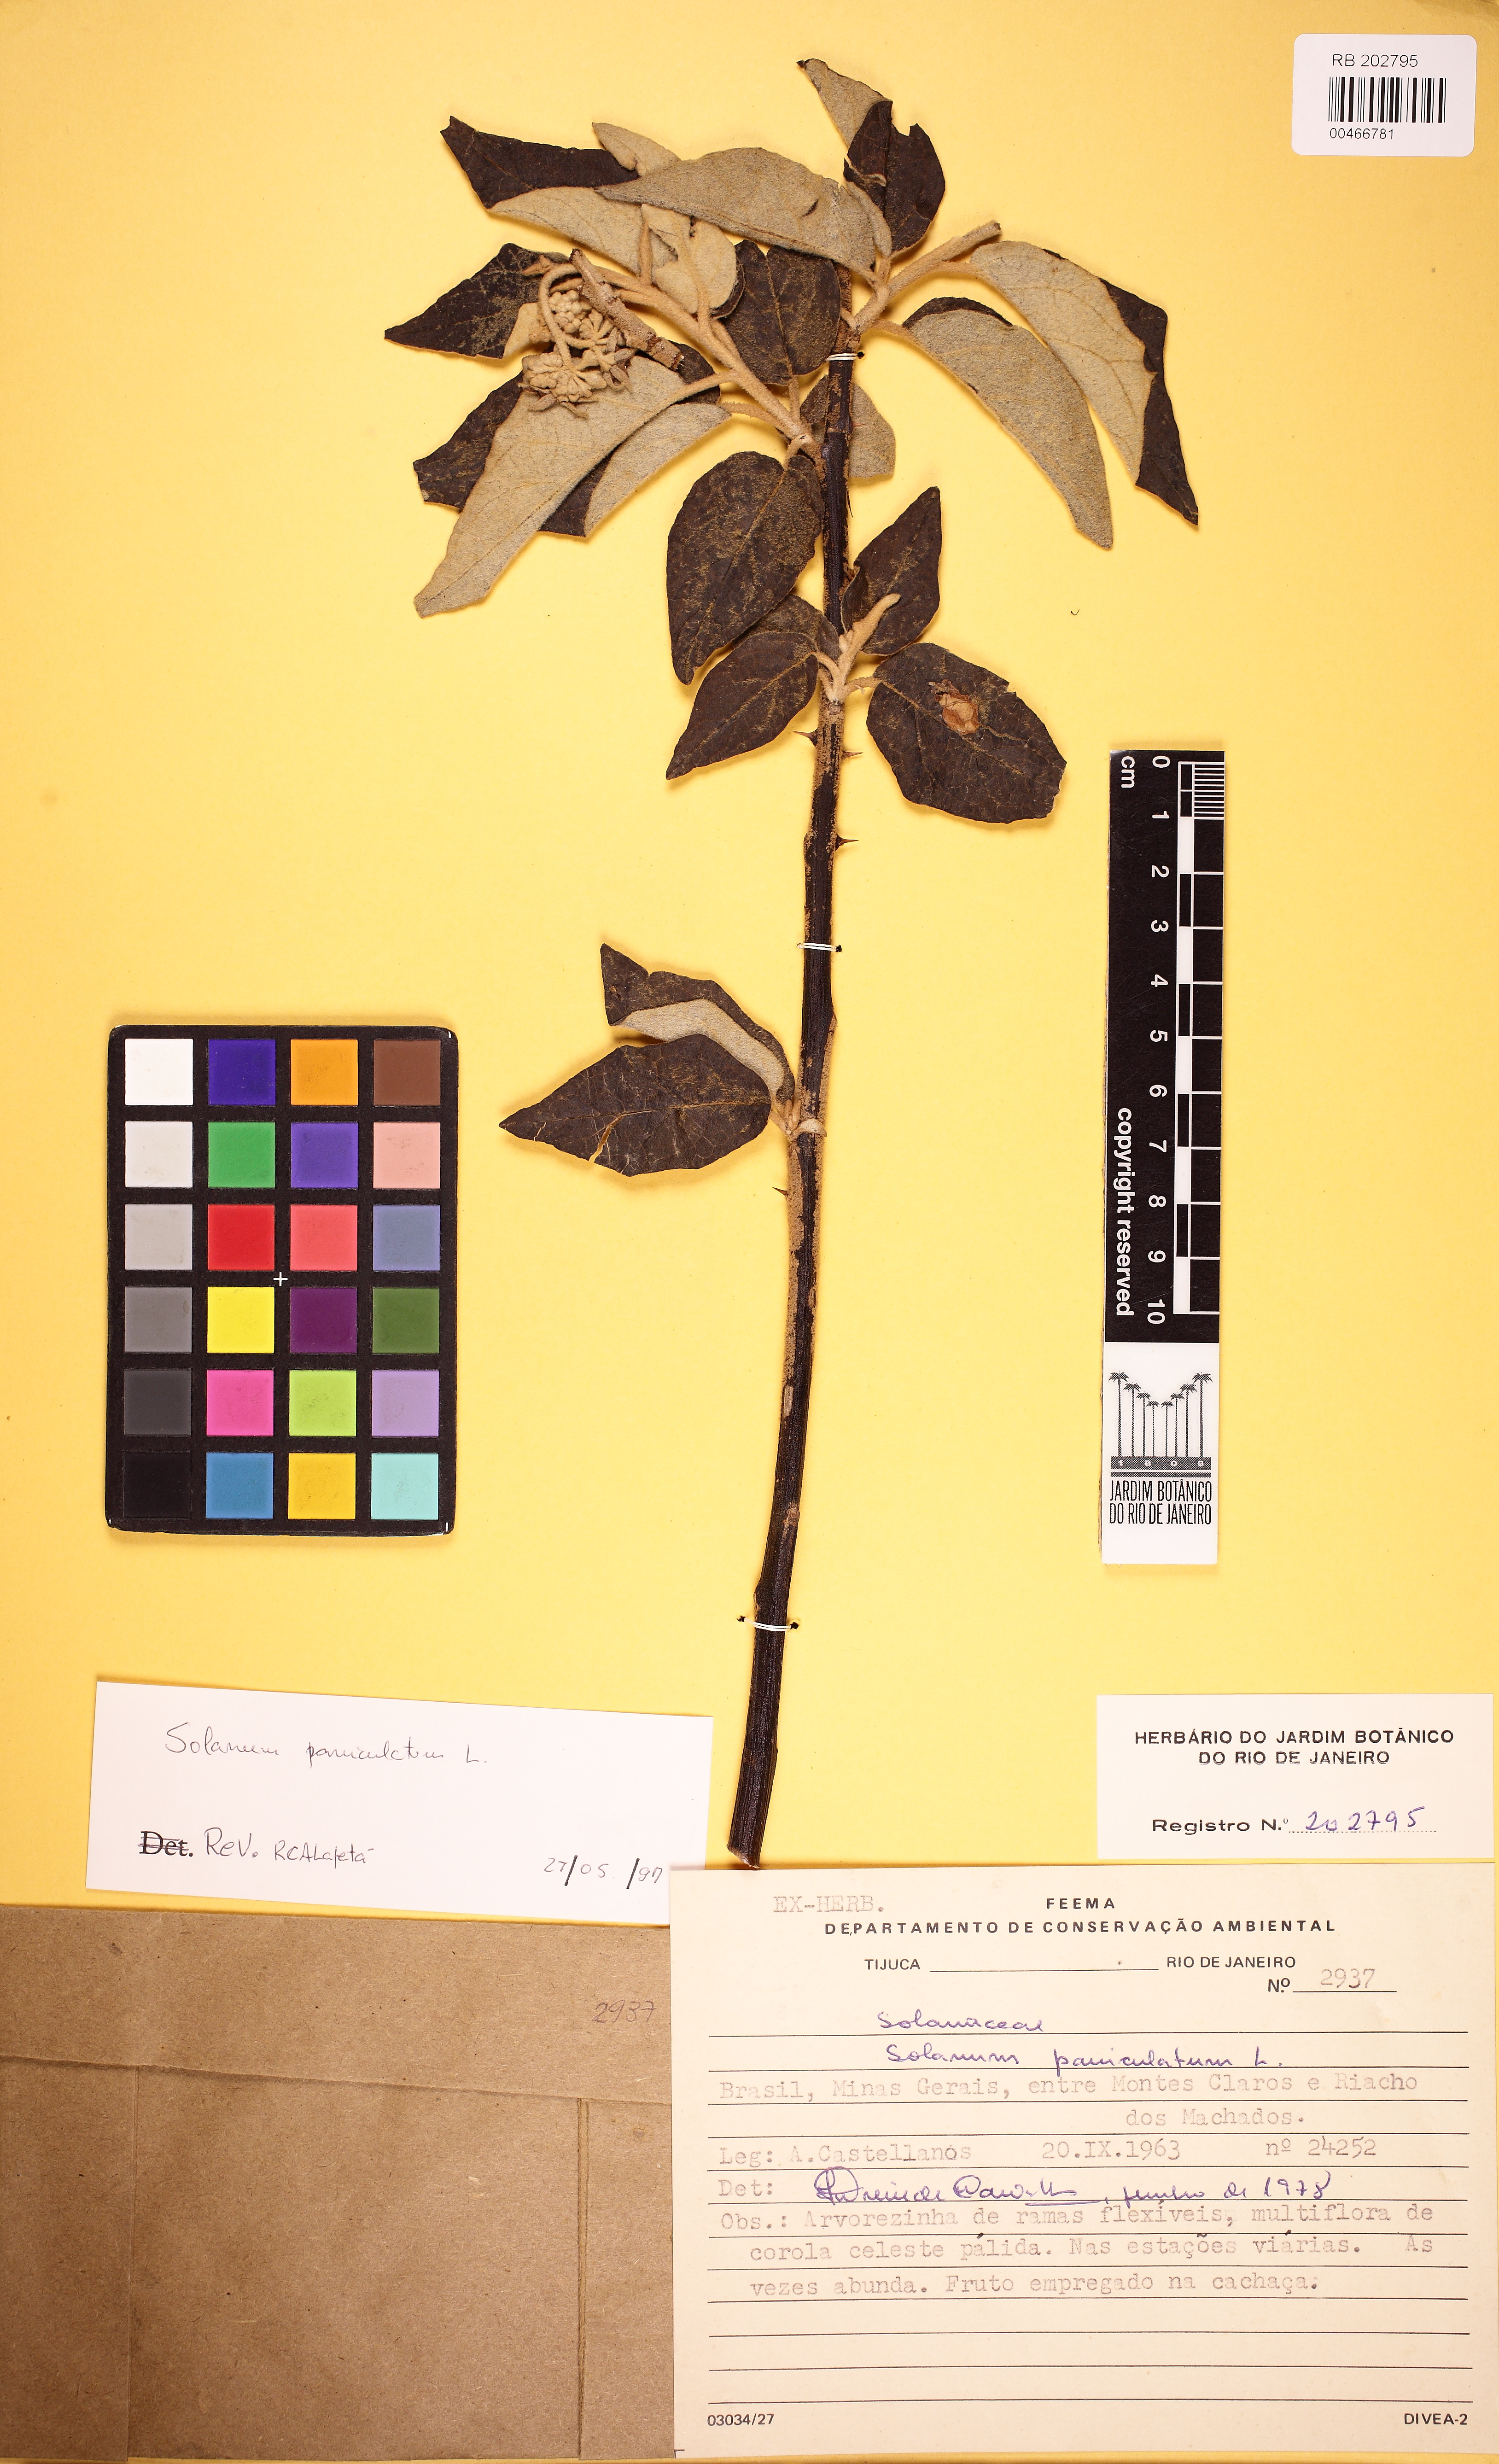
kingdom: Plantae
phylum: Tracheophyta
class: Magnoliopsida
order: Solanales
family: Solanaceae
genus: Solanum
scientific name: Solanum paniculatum
